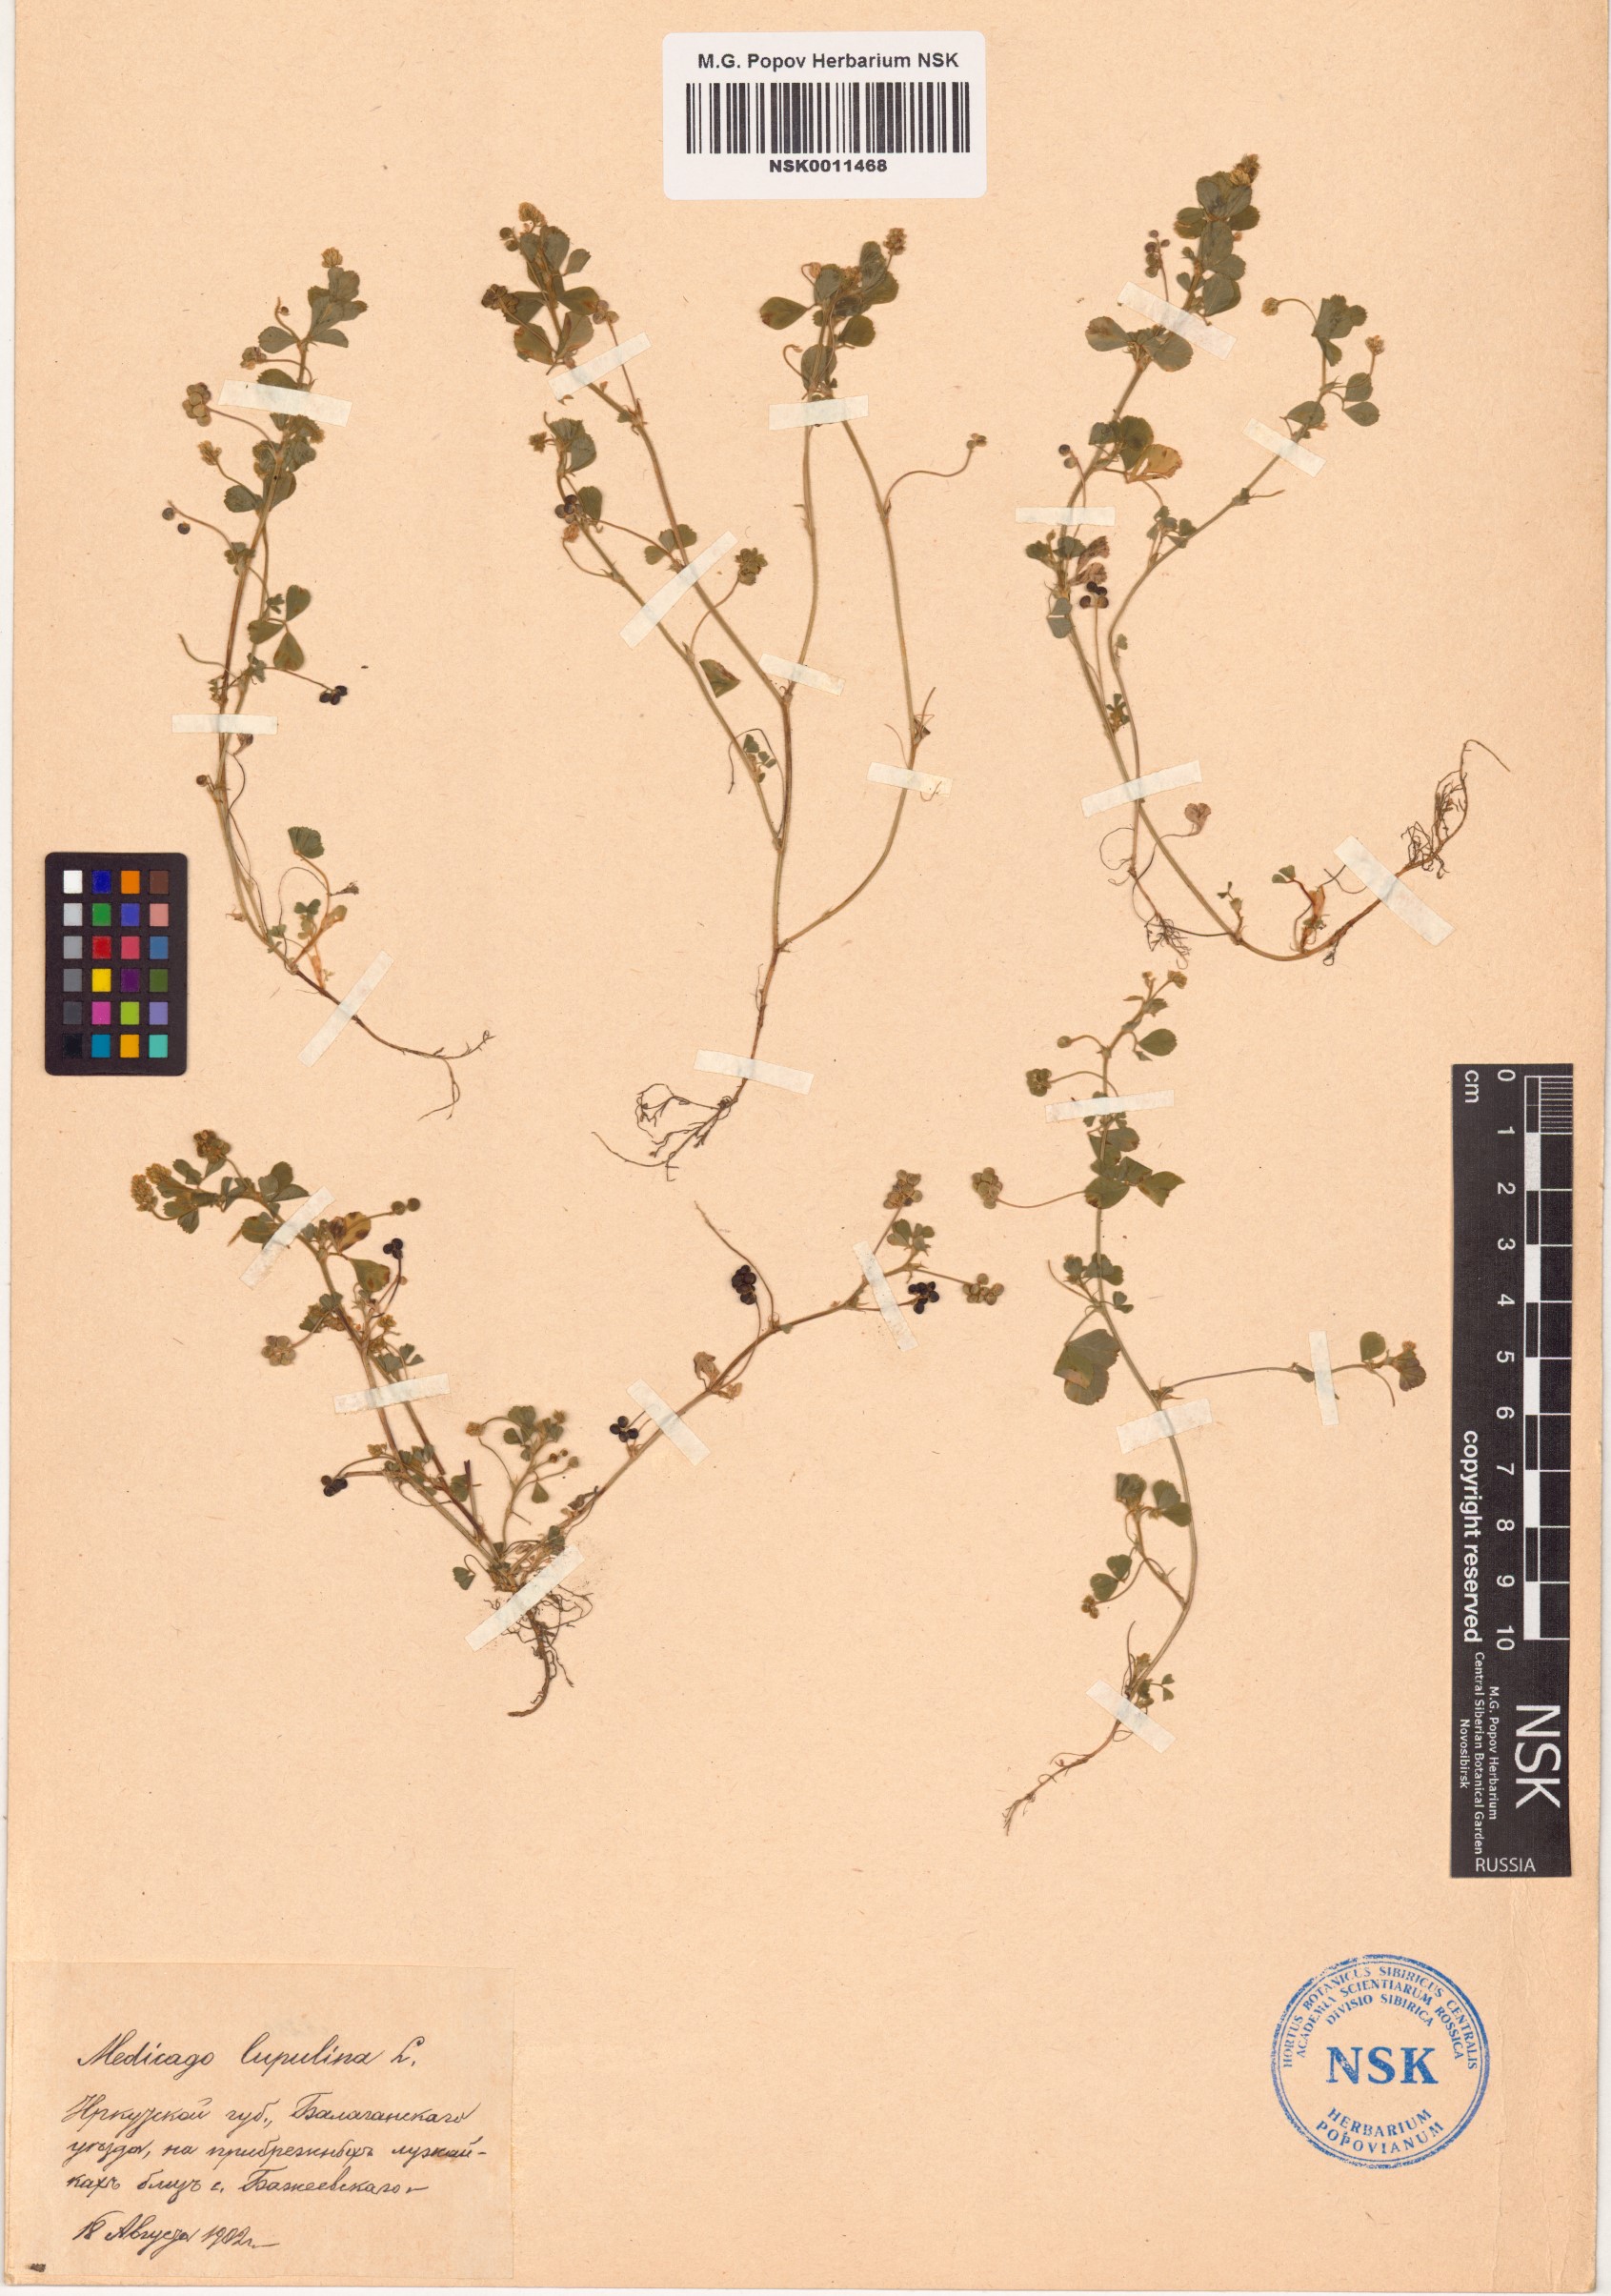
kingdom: Plantae
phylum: Tracheophyta
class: Magnoliopsida
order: Fabales
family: Fabaceae
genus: Medicago
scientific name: Medicago lupulina
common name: Black medick
